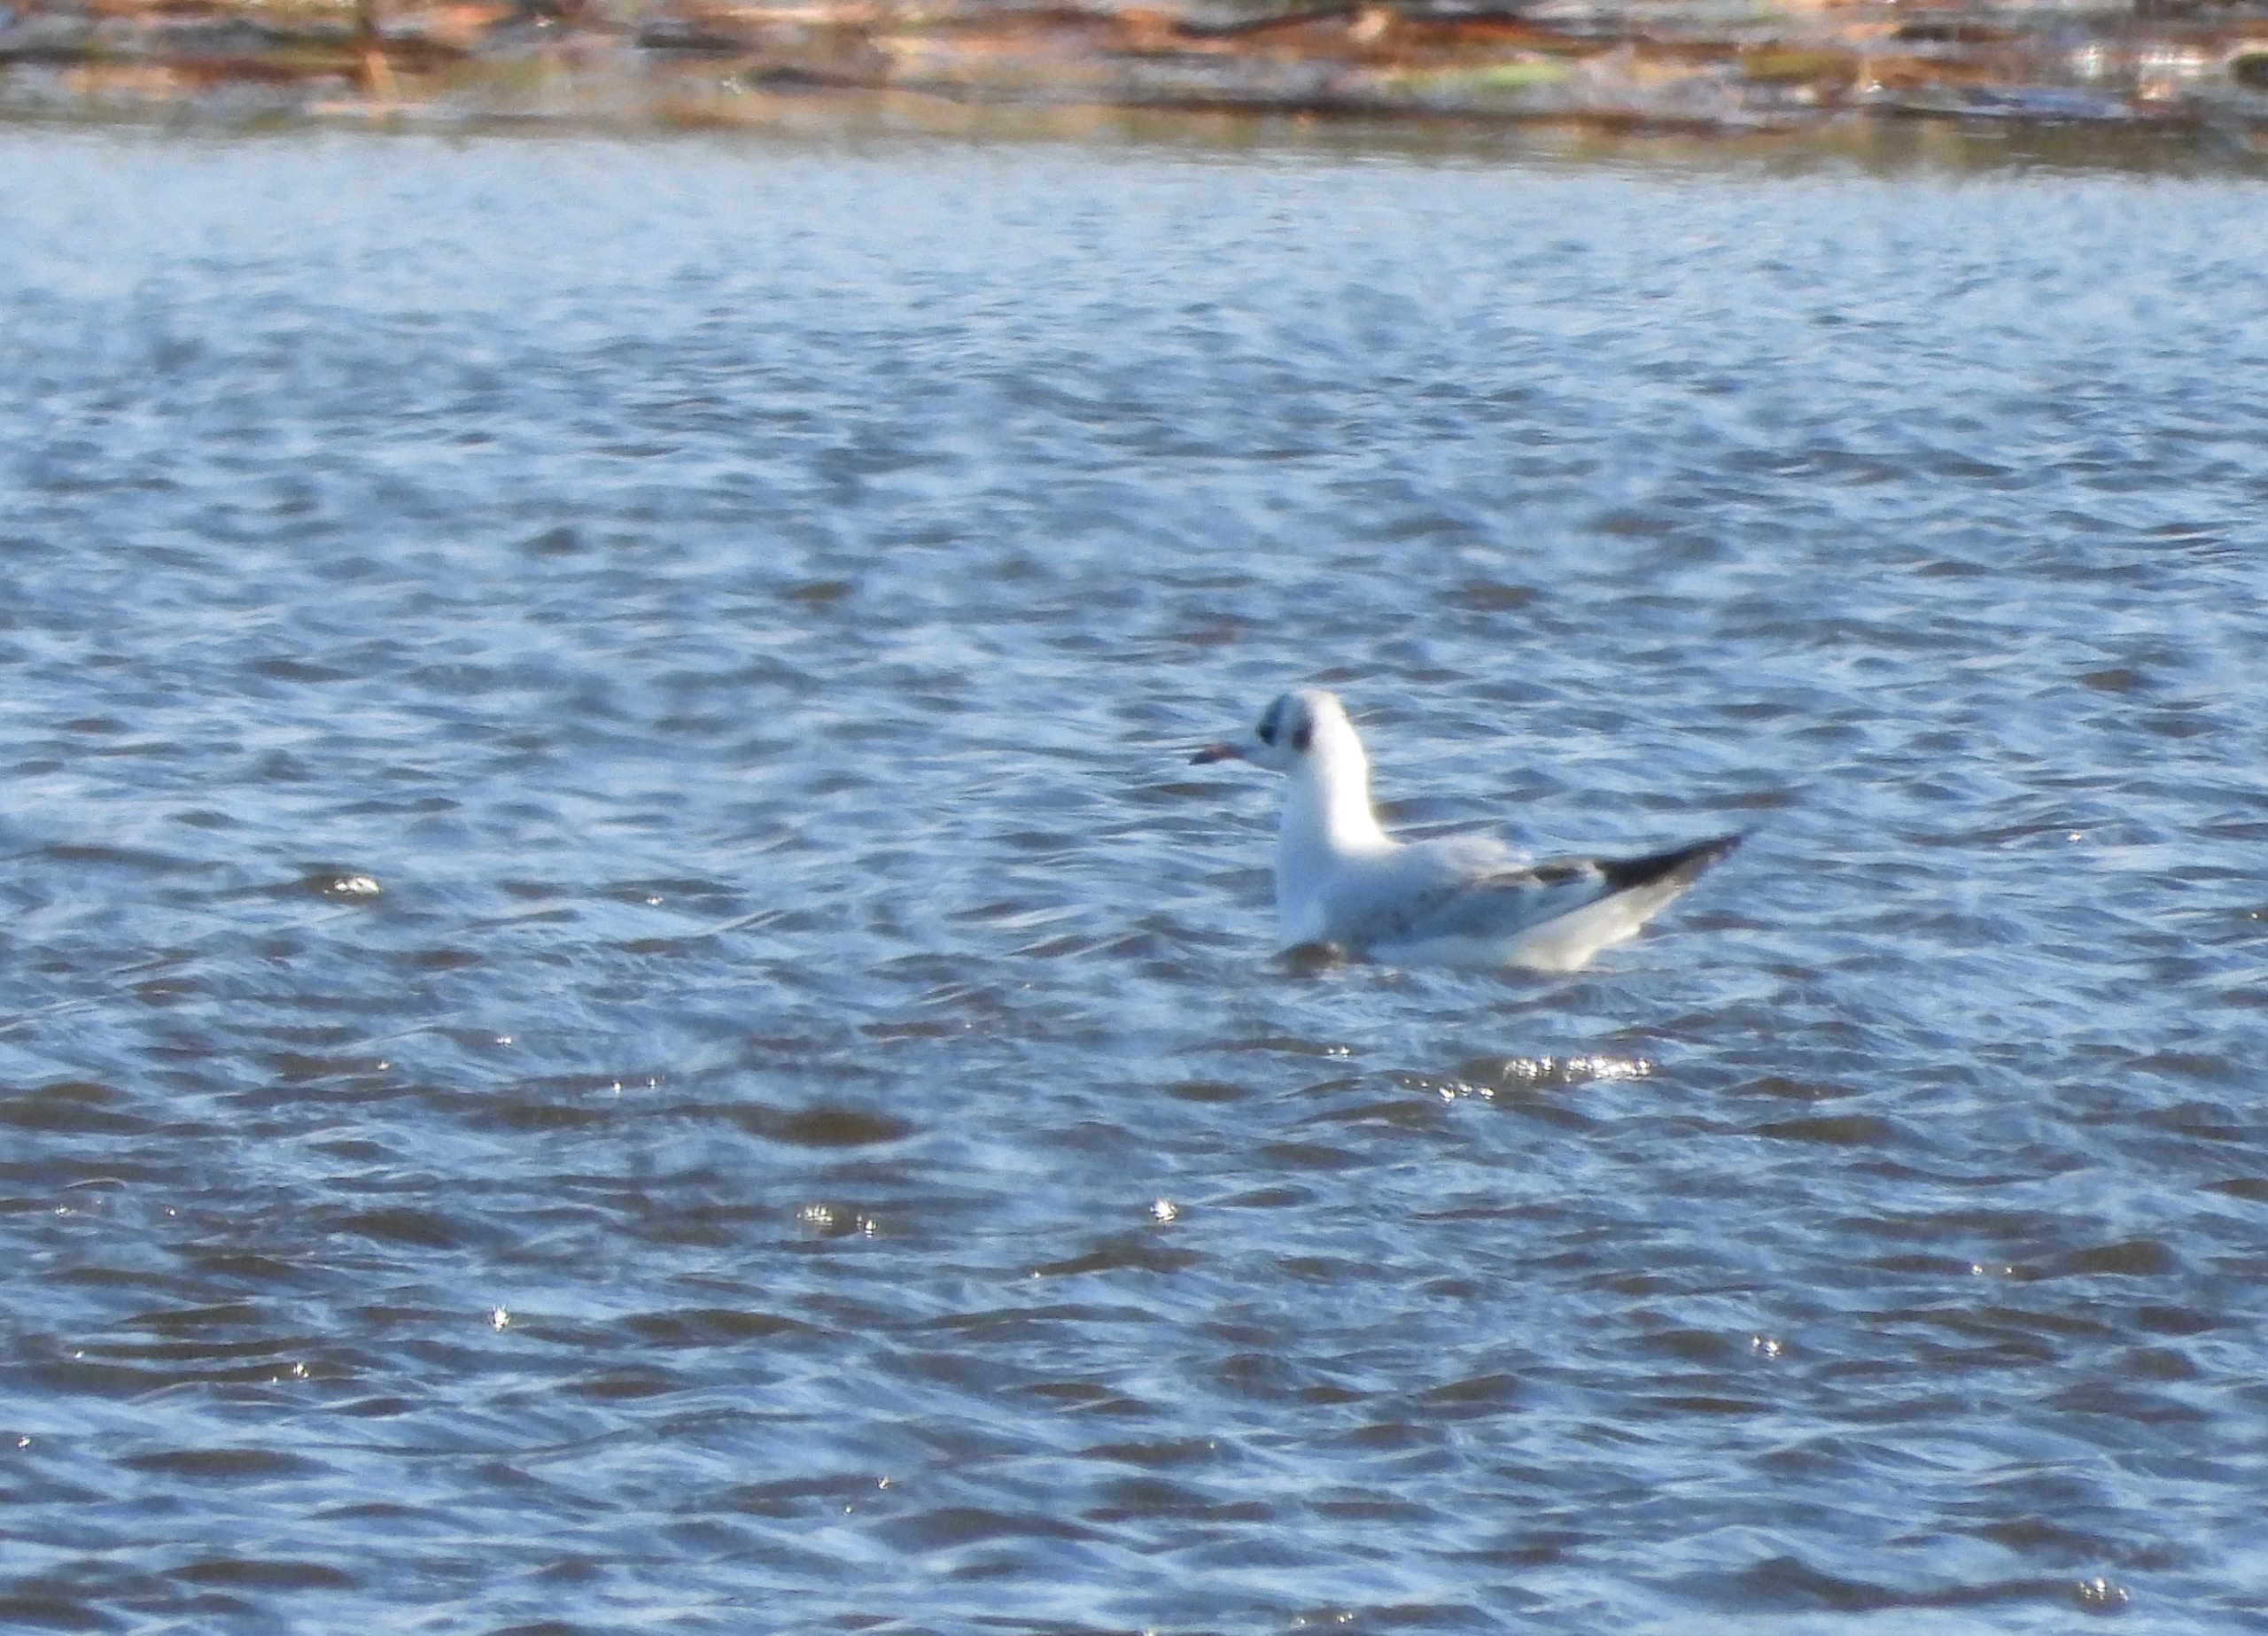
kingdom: Animalia
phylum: Chordata
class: Aves
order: Charadriiformes
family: Laridae
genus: Chroicocephalus
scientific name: Chroicocephalus ridibundus
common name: Hættemåge
